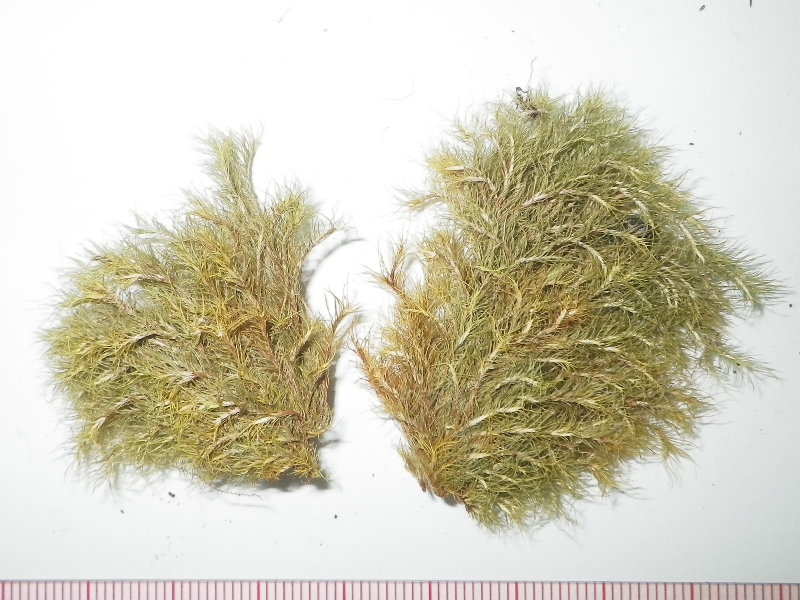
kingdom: Plantae
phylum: Bryophyta
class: Bryopsida
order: Dicranales
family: Calymperaceae
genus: Syrrhopodon
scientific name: Syrrhopodon flammeonervis
